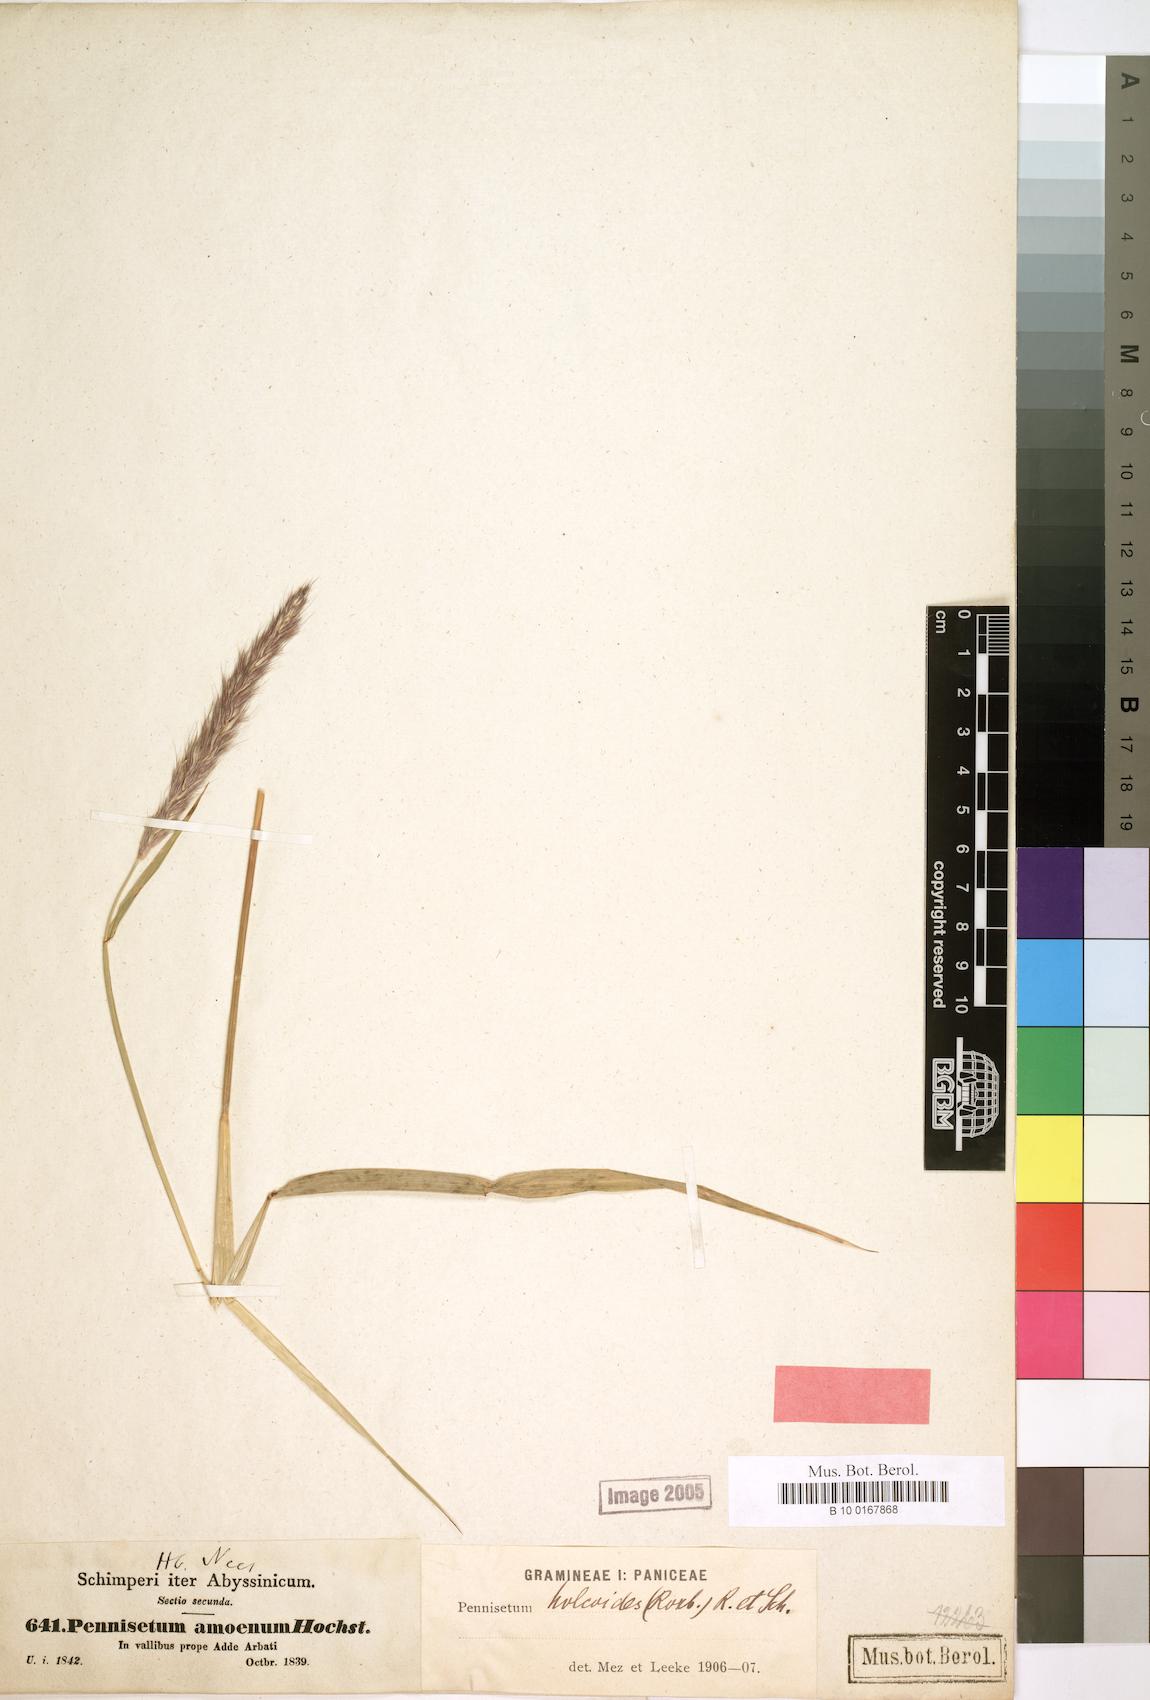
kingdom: Plantae
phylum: Tracheophyta
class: Liliopsida
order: Poales
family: Poaceae
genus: Cenchrus
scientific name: Cenchrus pedicellatus
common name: Hairy fountain grass
